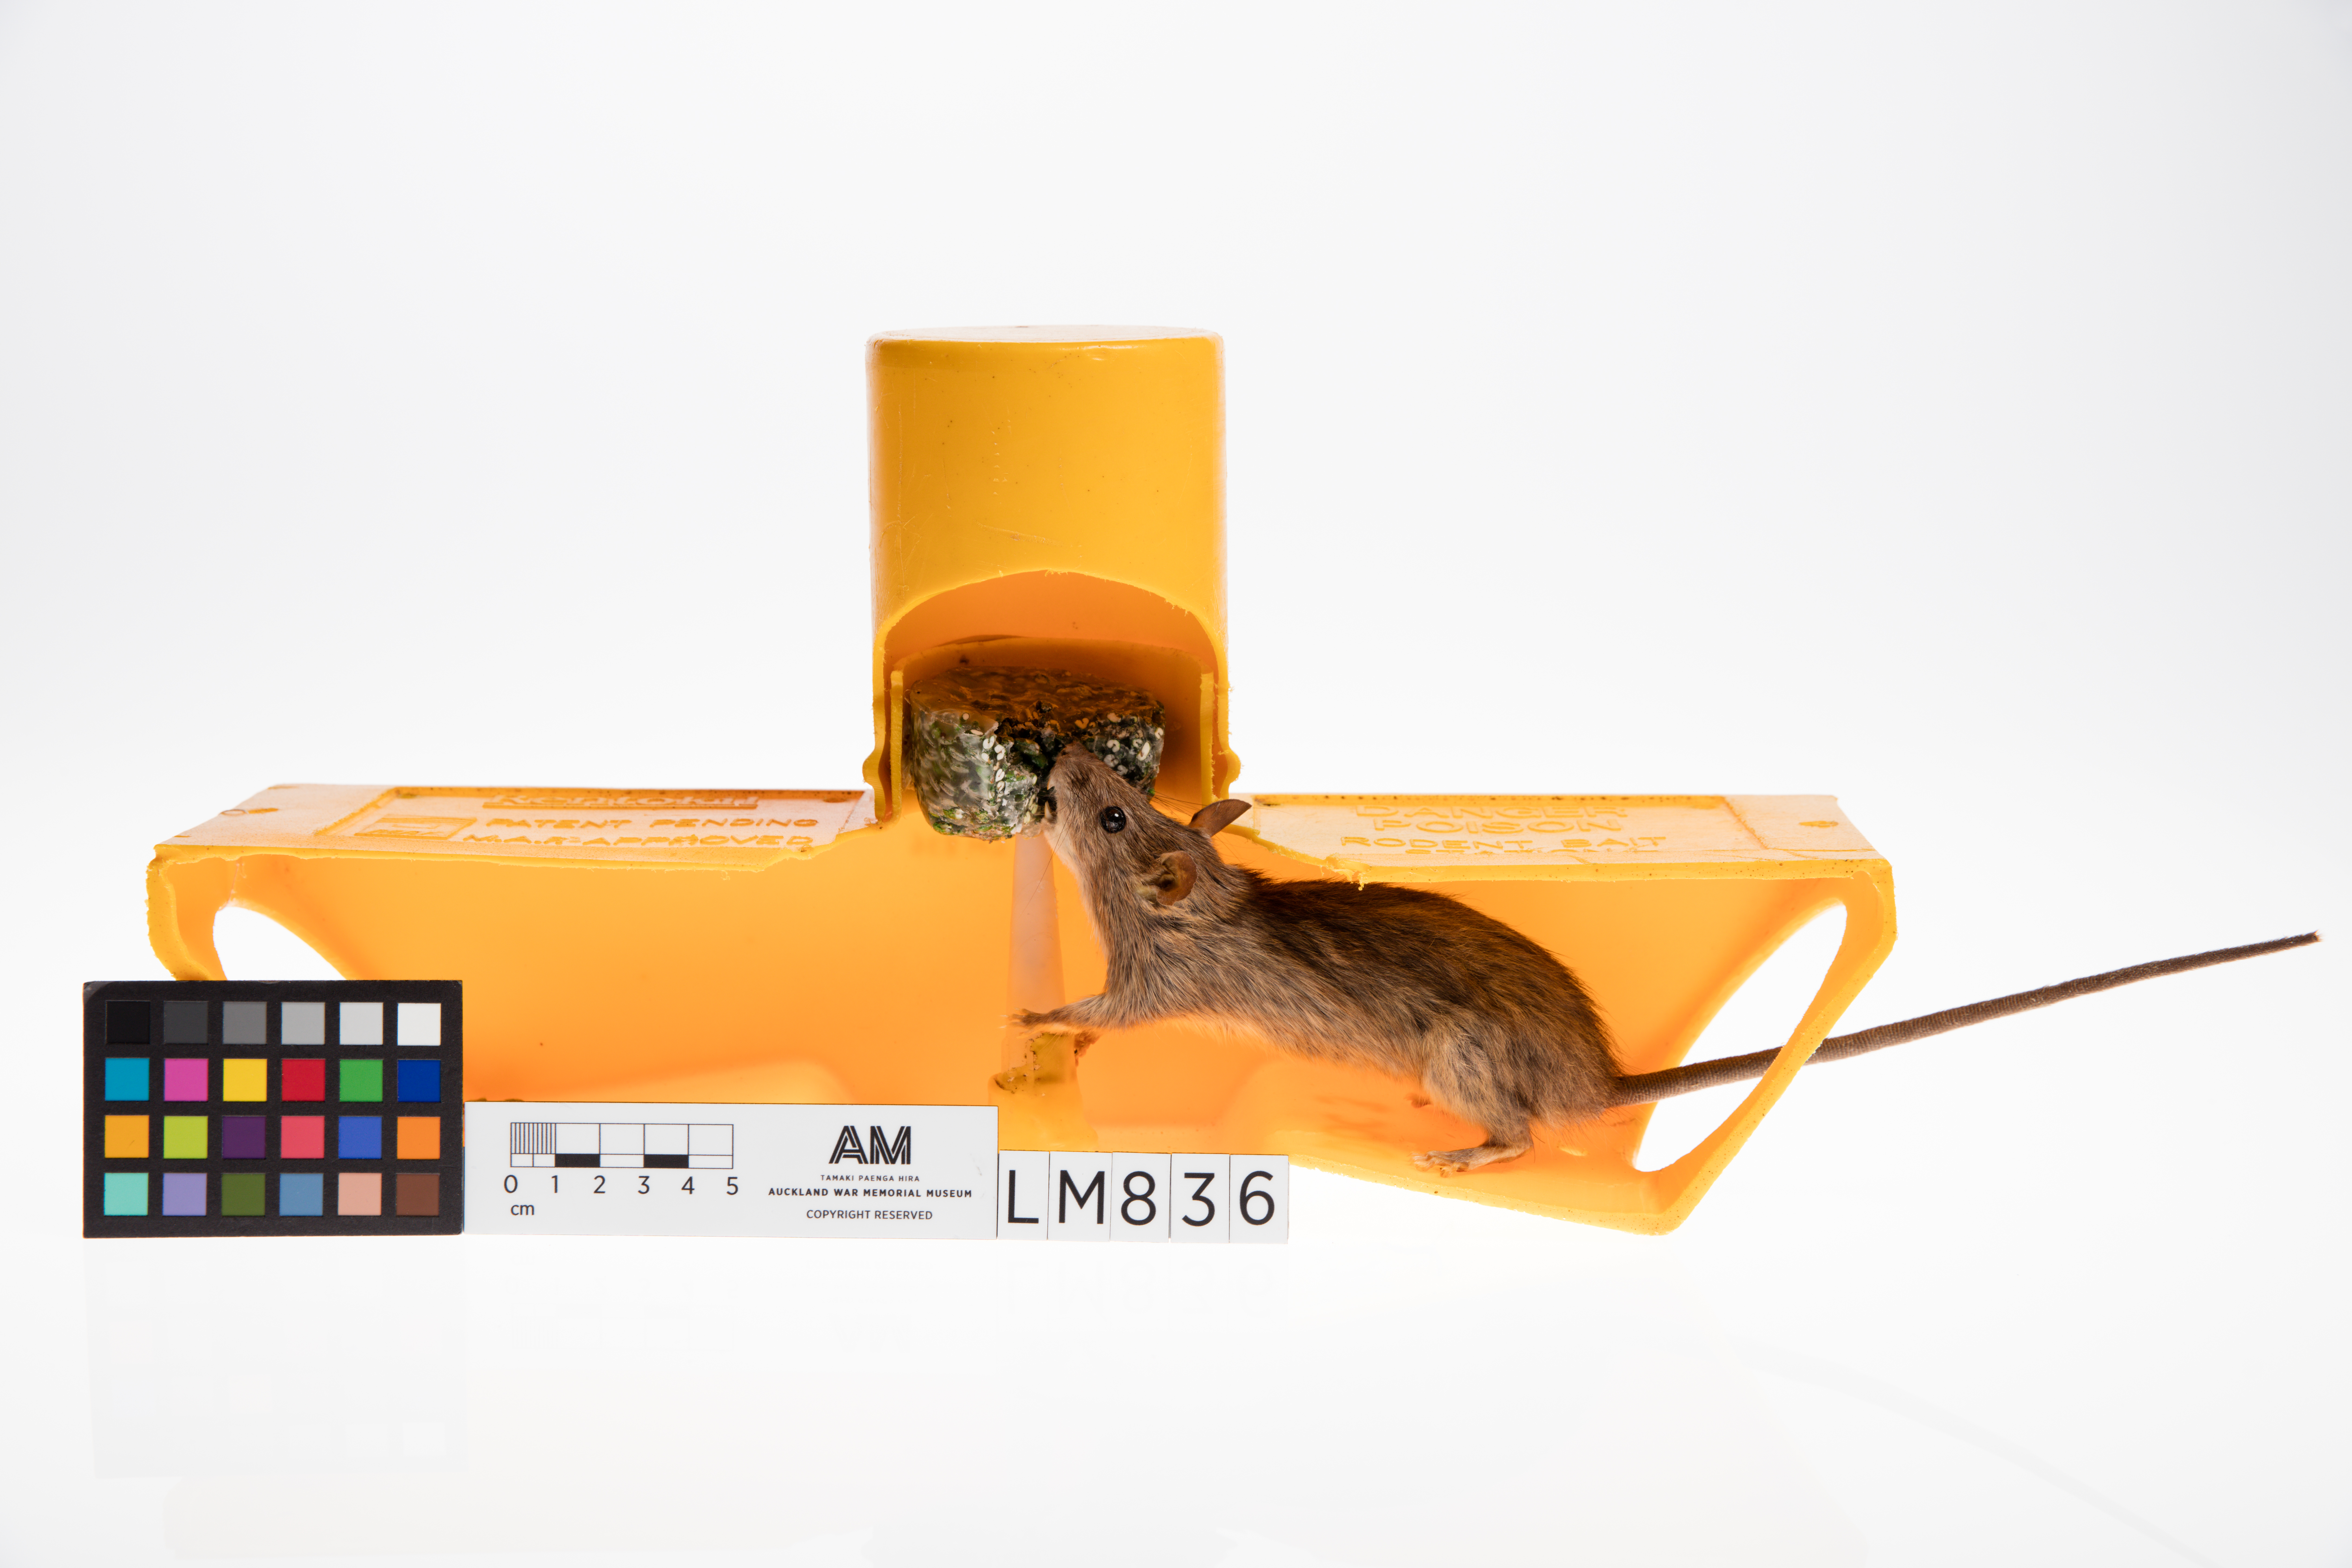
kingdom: Animalia
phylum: Chordata
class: Mammalia
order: Rodentia
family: Muridae
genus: Rattus
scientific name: Rattus rattus
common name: Black rat
